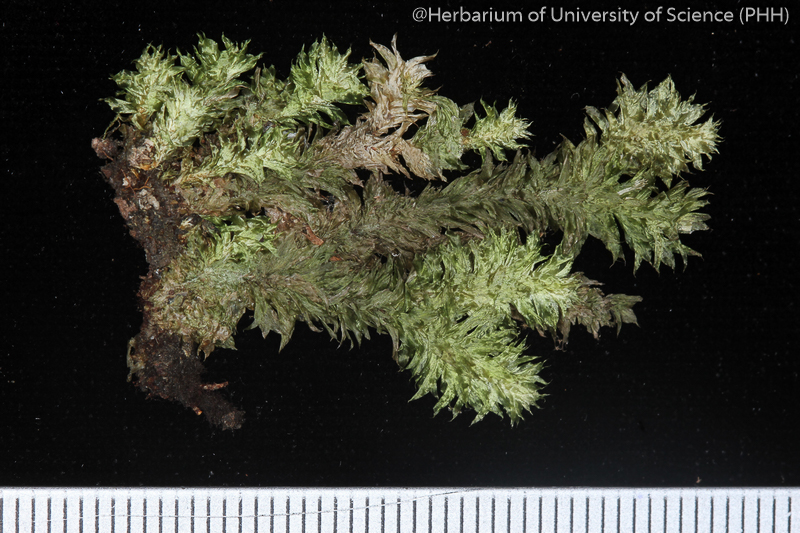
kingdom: Plantae
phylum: Bryophyta
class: Bryopsida
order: Ptychomniales
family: Ptychomniaceae
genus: Garovaglia
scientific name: Garovaglia powellii
